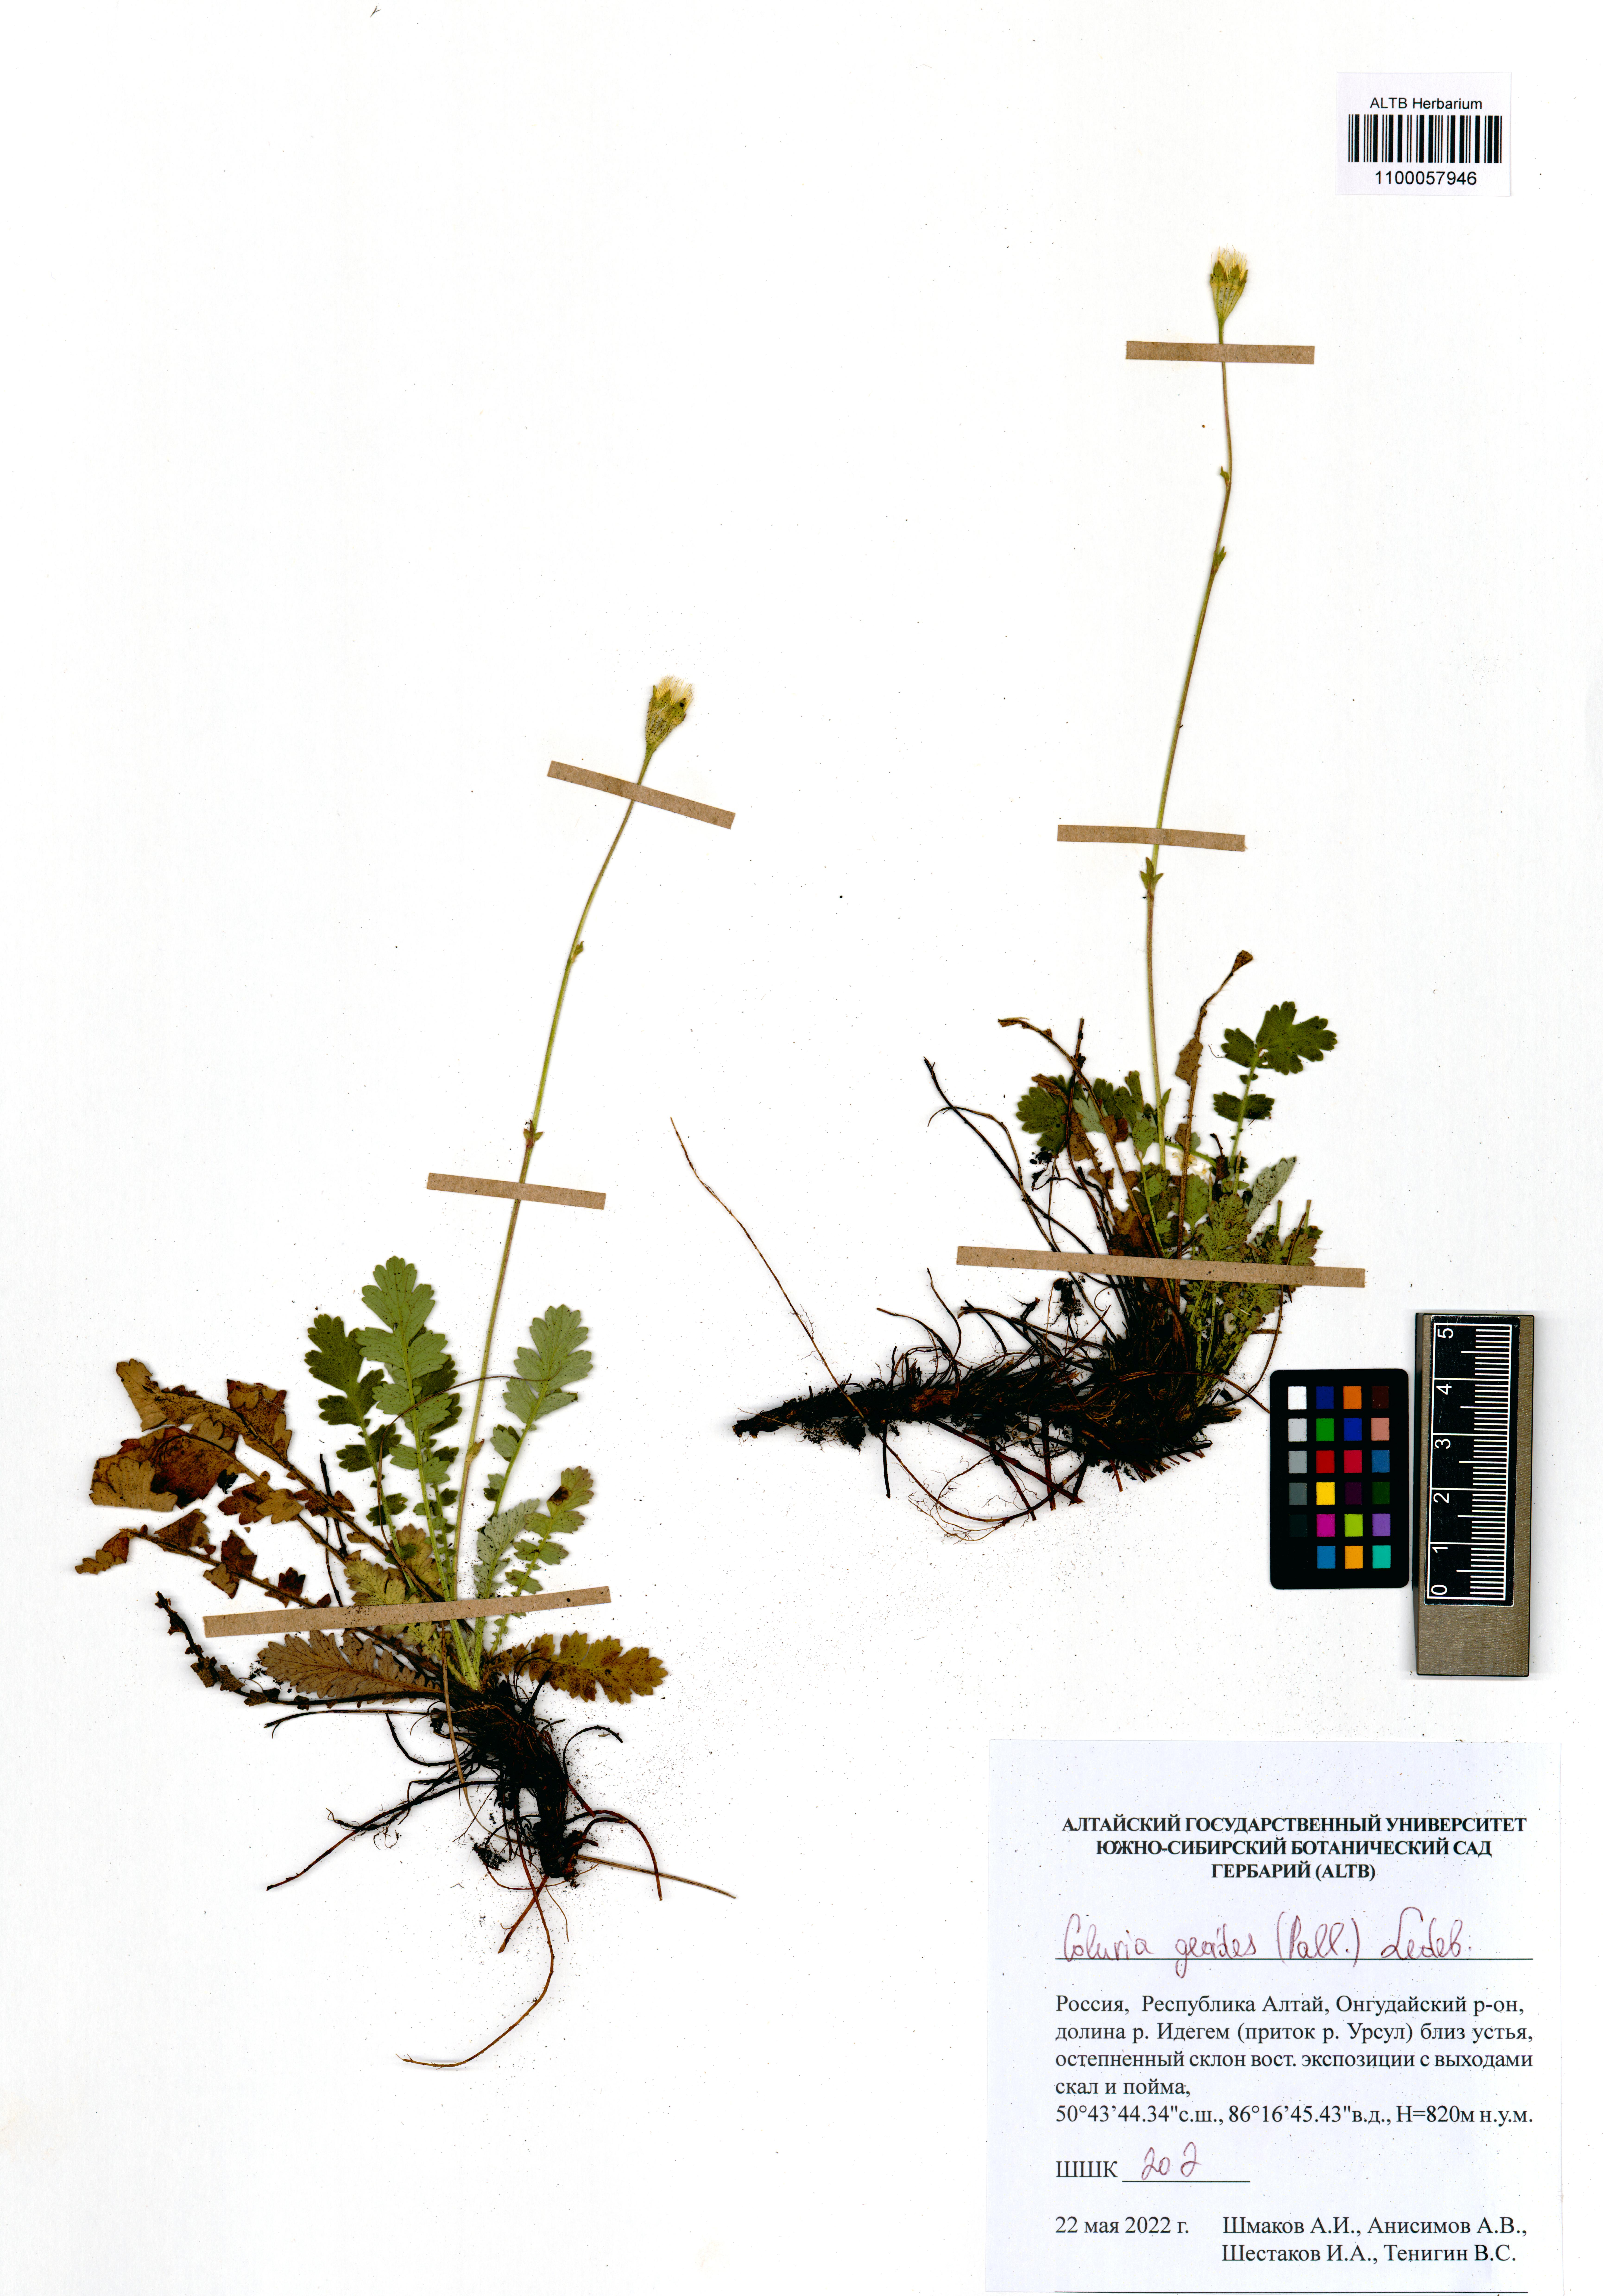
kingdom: Plantae
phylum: Tracheophyta
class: Magnoliopsida
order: Rosales
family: Rosaceae
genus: Geum
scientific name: Geum geoides
